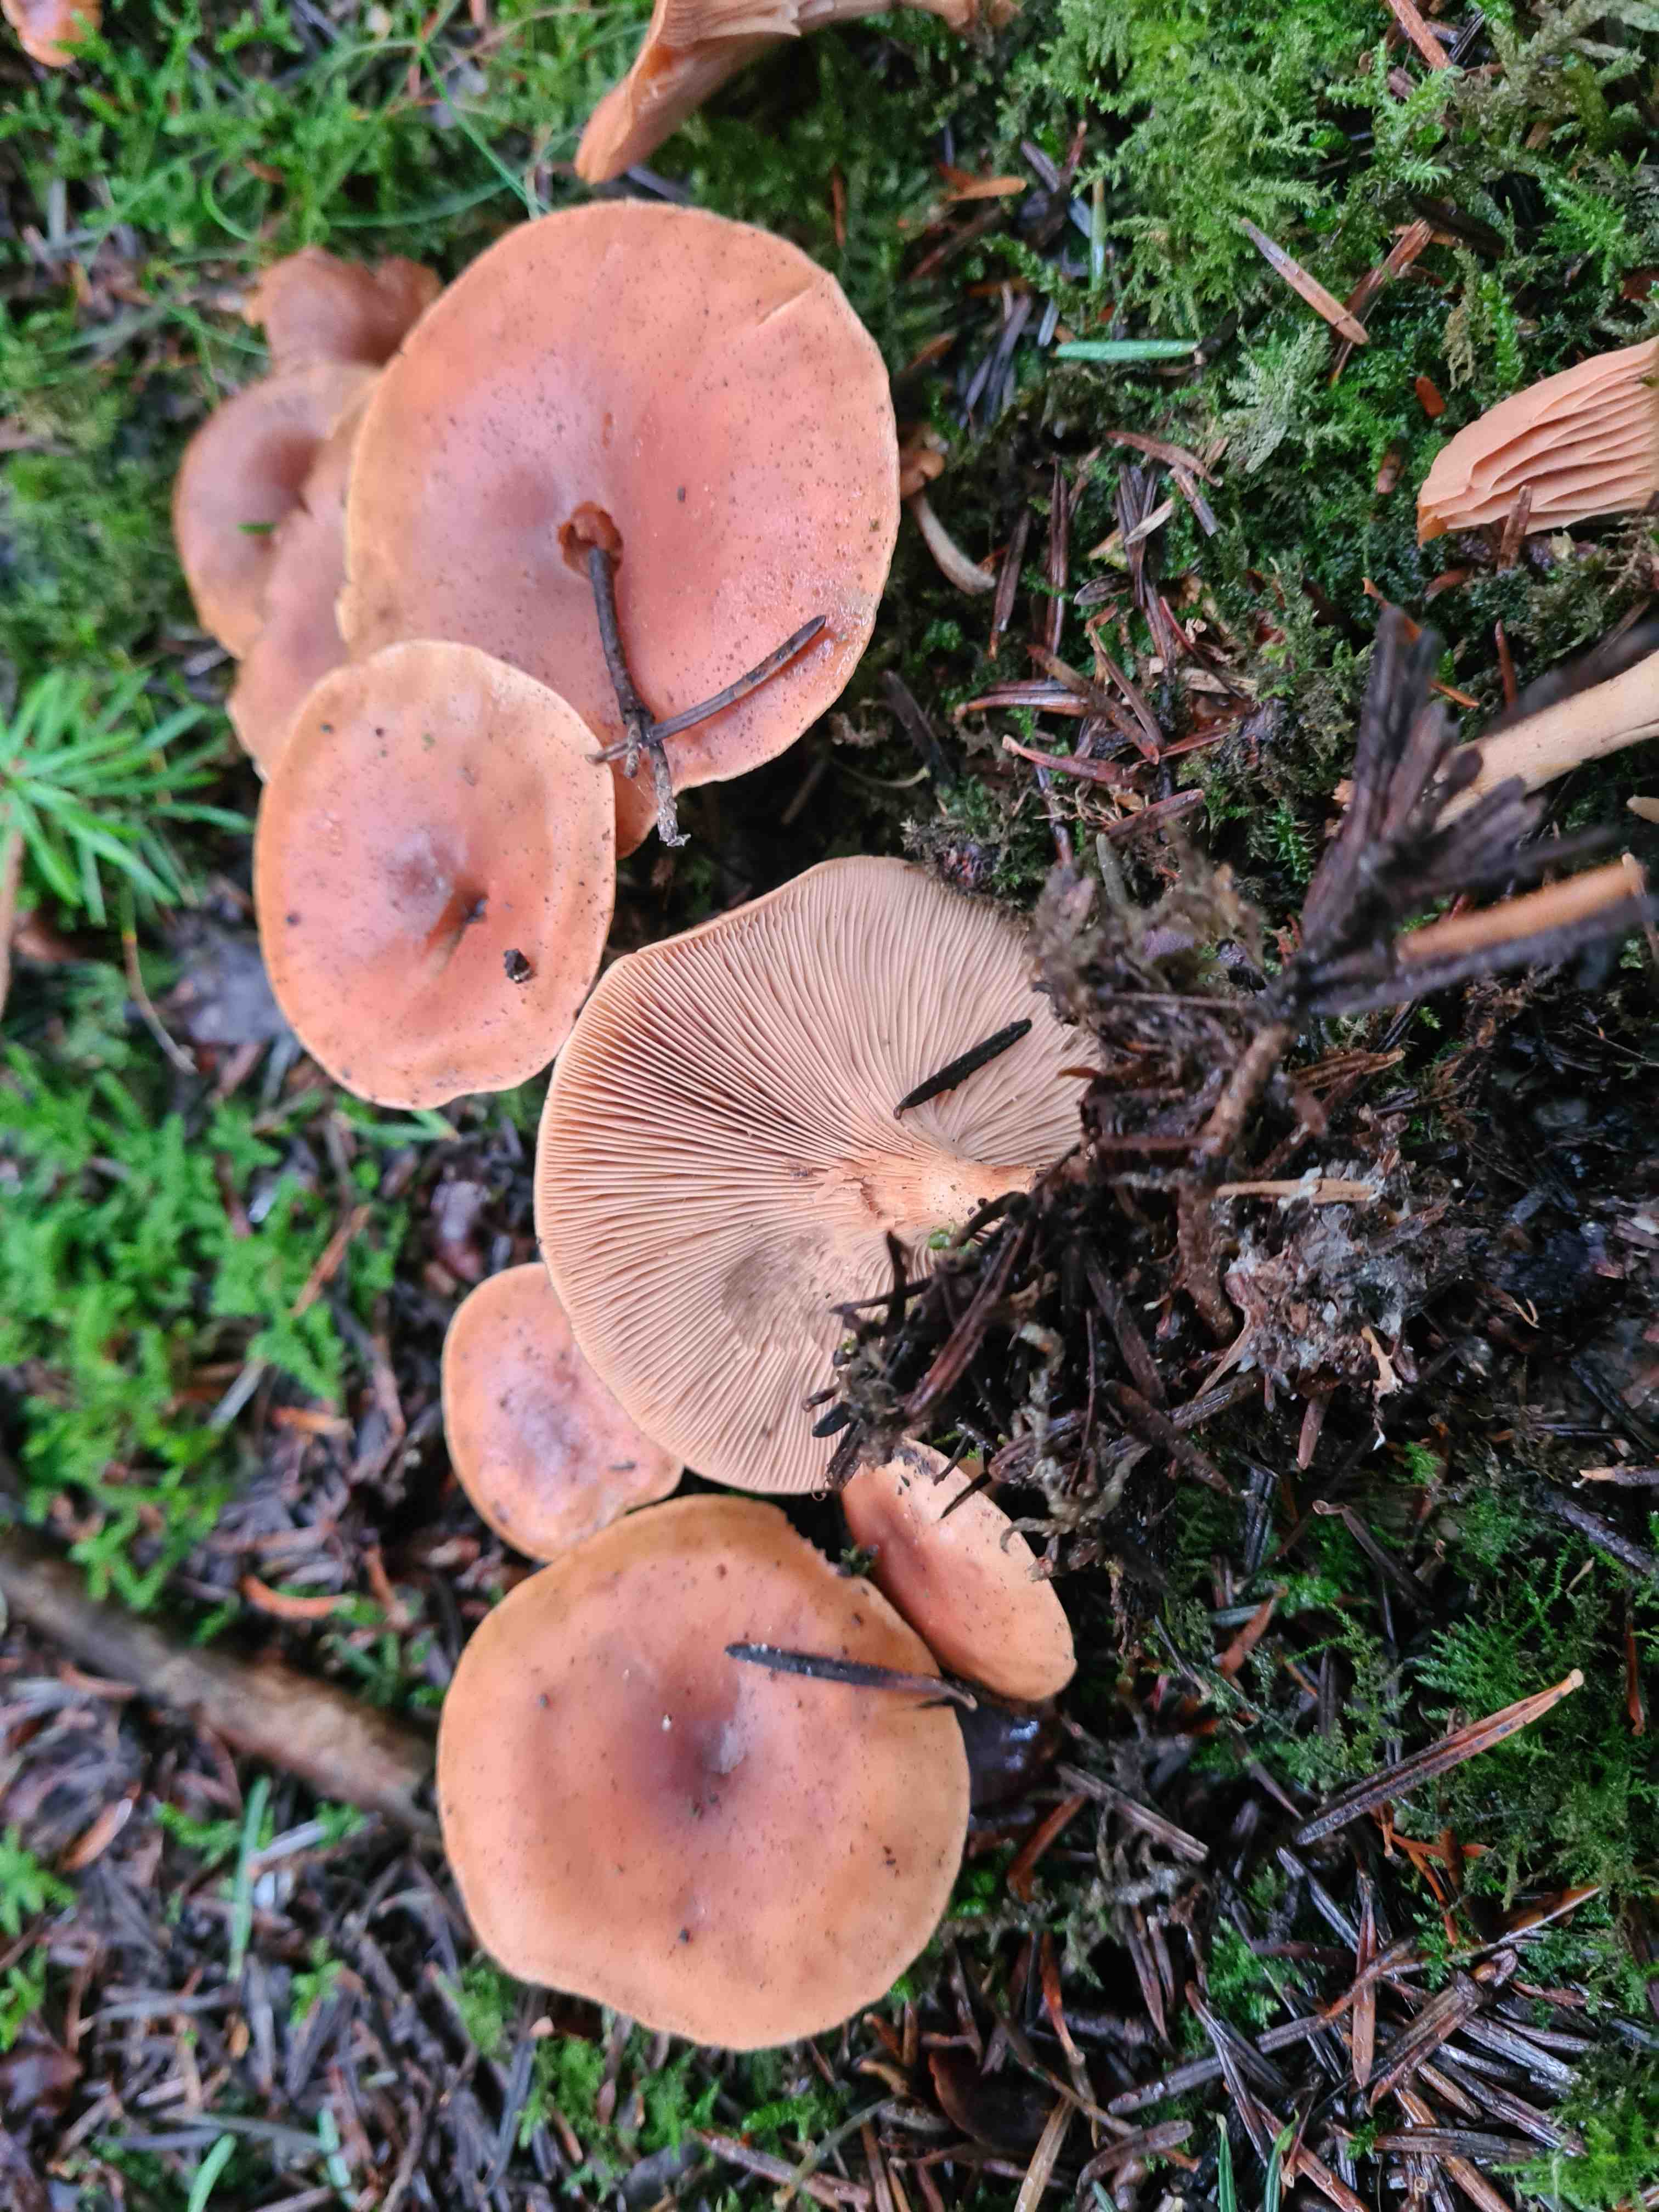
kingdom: Fungi
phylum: Basidiomycota
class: Agaricomycetes
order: Agaricales
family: Tricholomataceae
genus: Paralepista
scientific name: Paralepista flaccida
